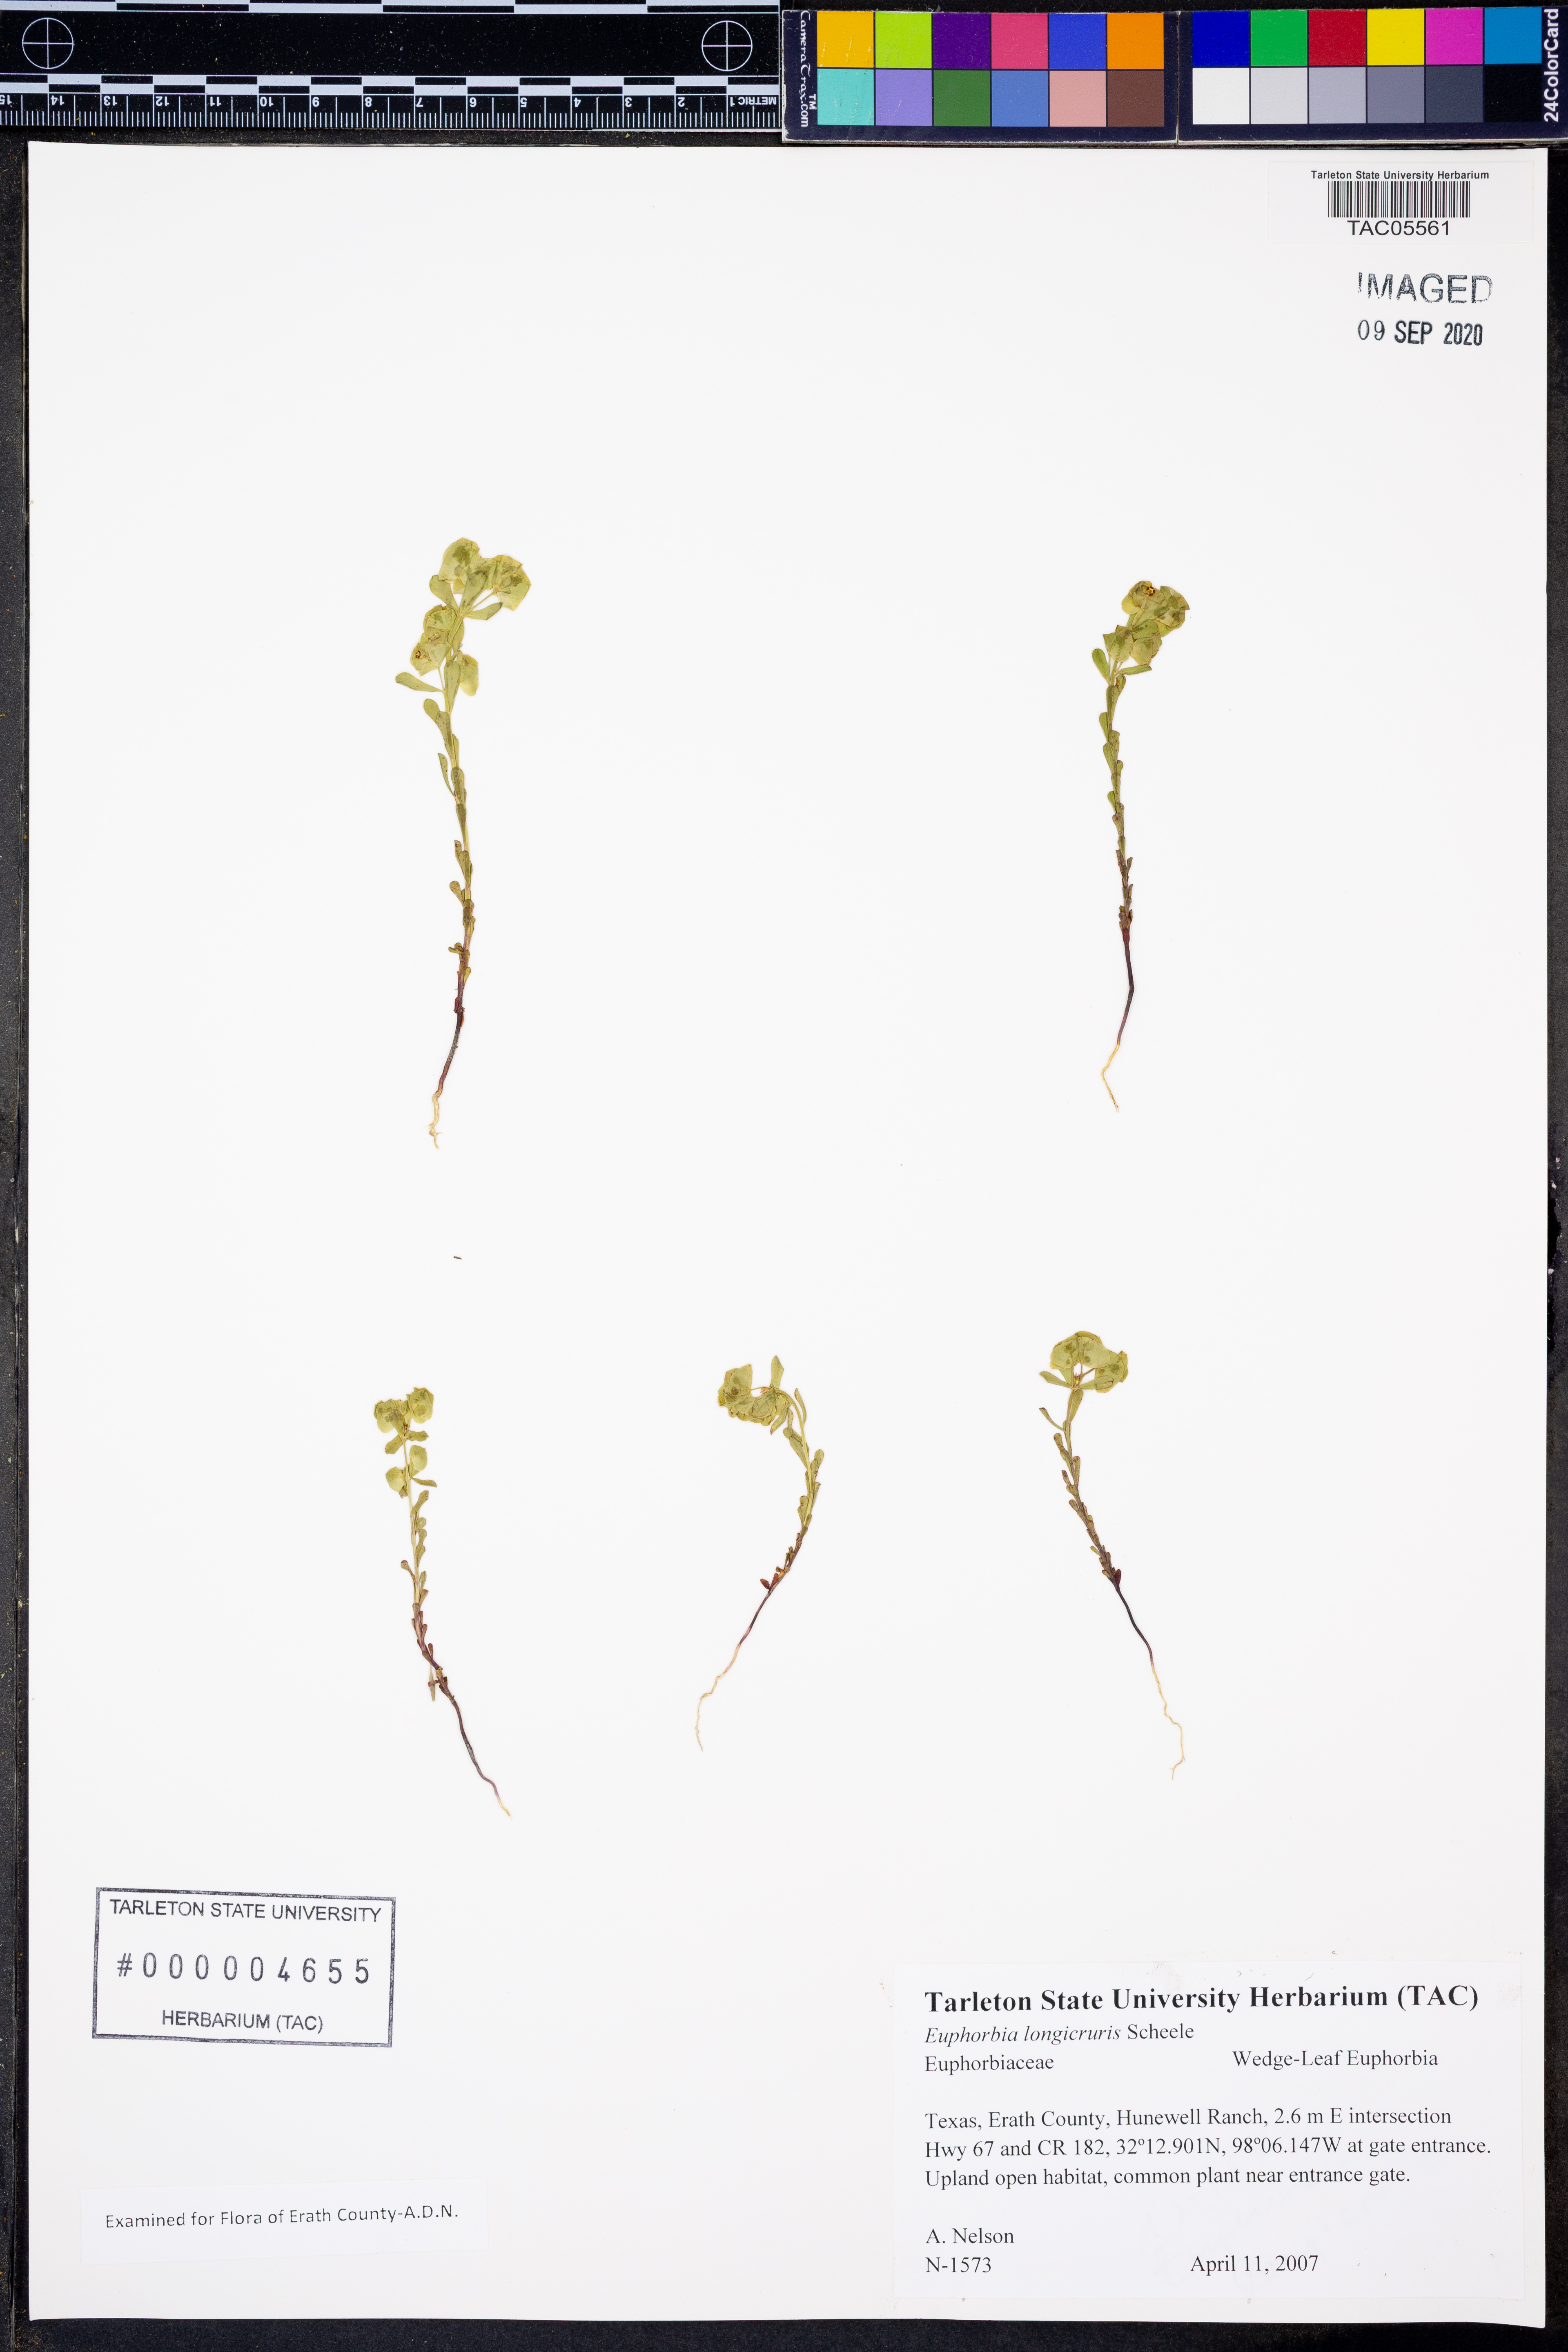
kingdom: Plantae
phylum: Tracheophyta
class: Magnoliopsida
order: Malpighiales
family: Euphorbiaceae
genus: Euphorbia
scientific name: Euphorbia longicruris
